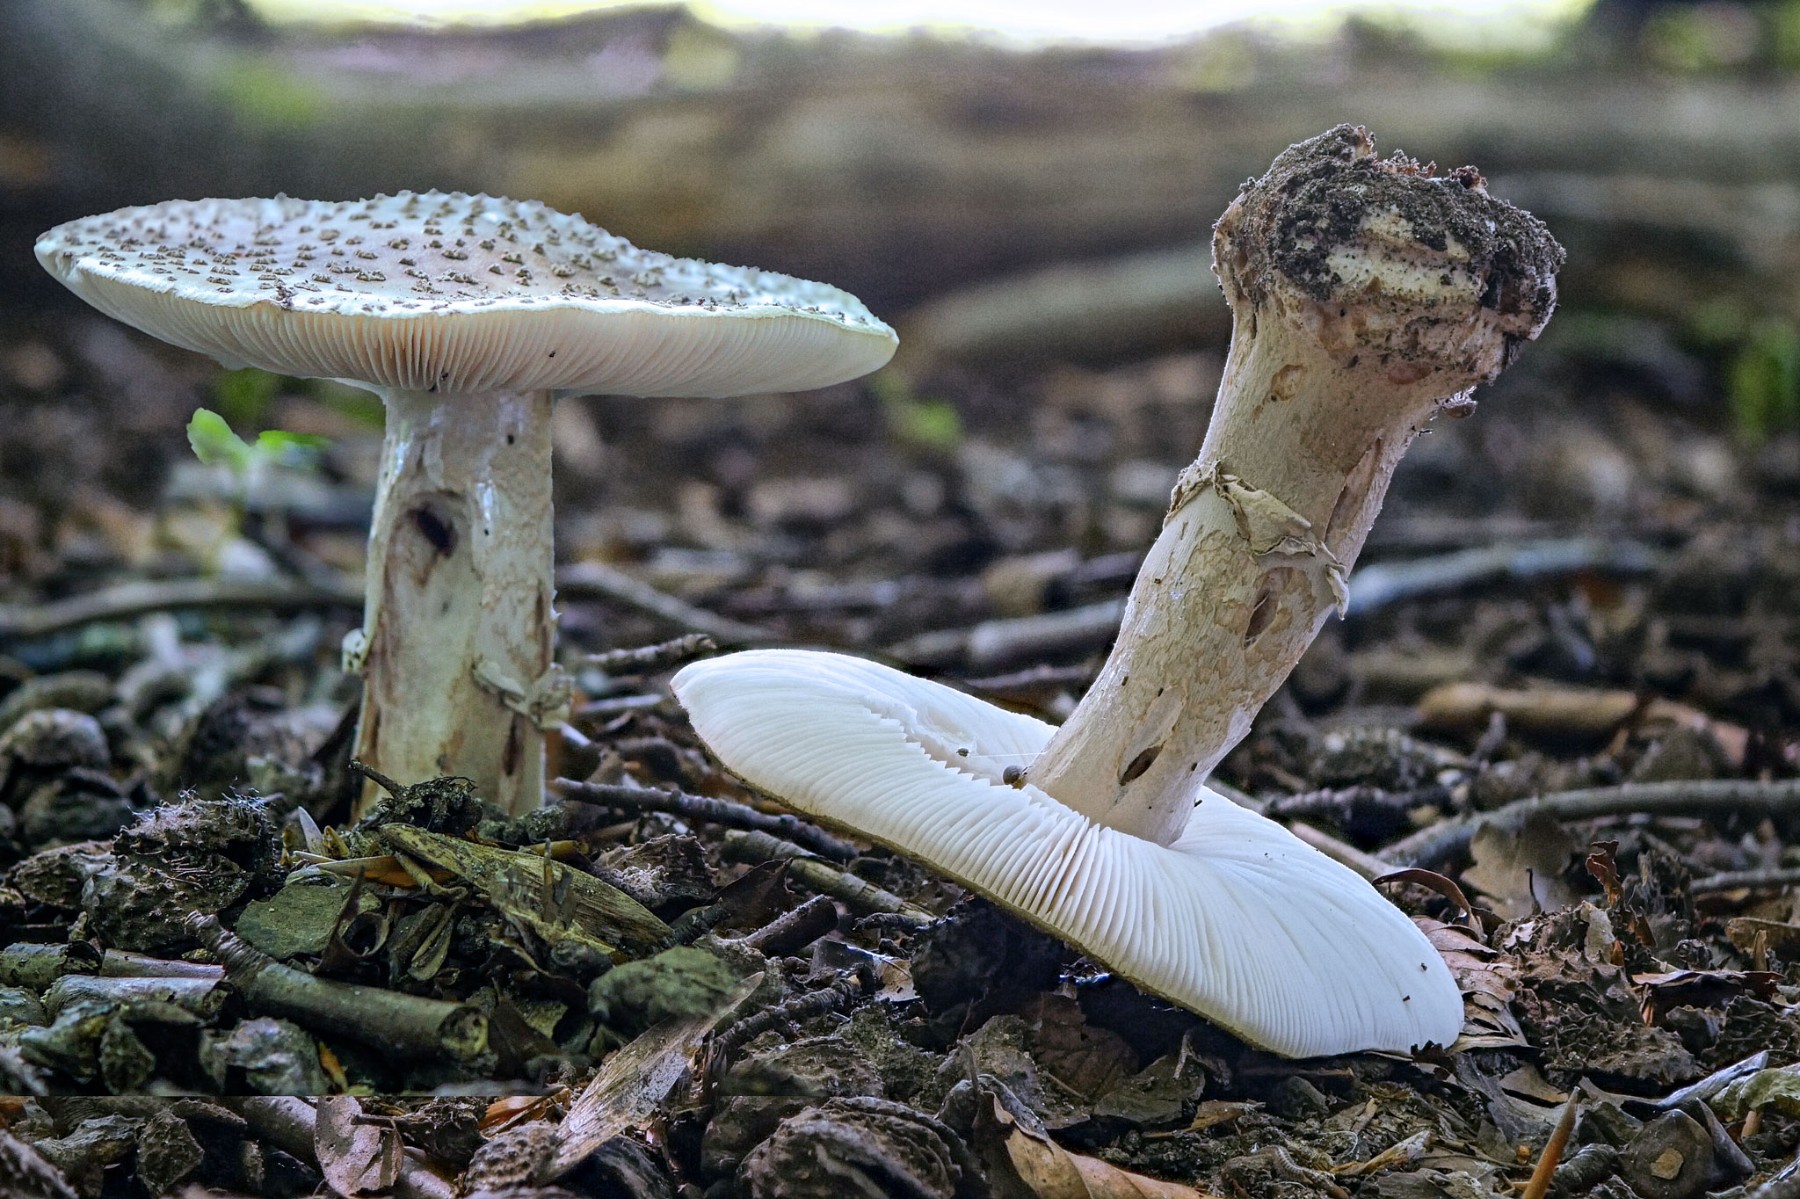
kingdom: Fungi
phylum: Basidiomycota
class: Agaricomycetes
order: Agaricales
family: Amanitaceae
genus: Amanita
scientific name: Amanita rubescens
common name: rødmende fluesvamp
